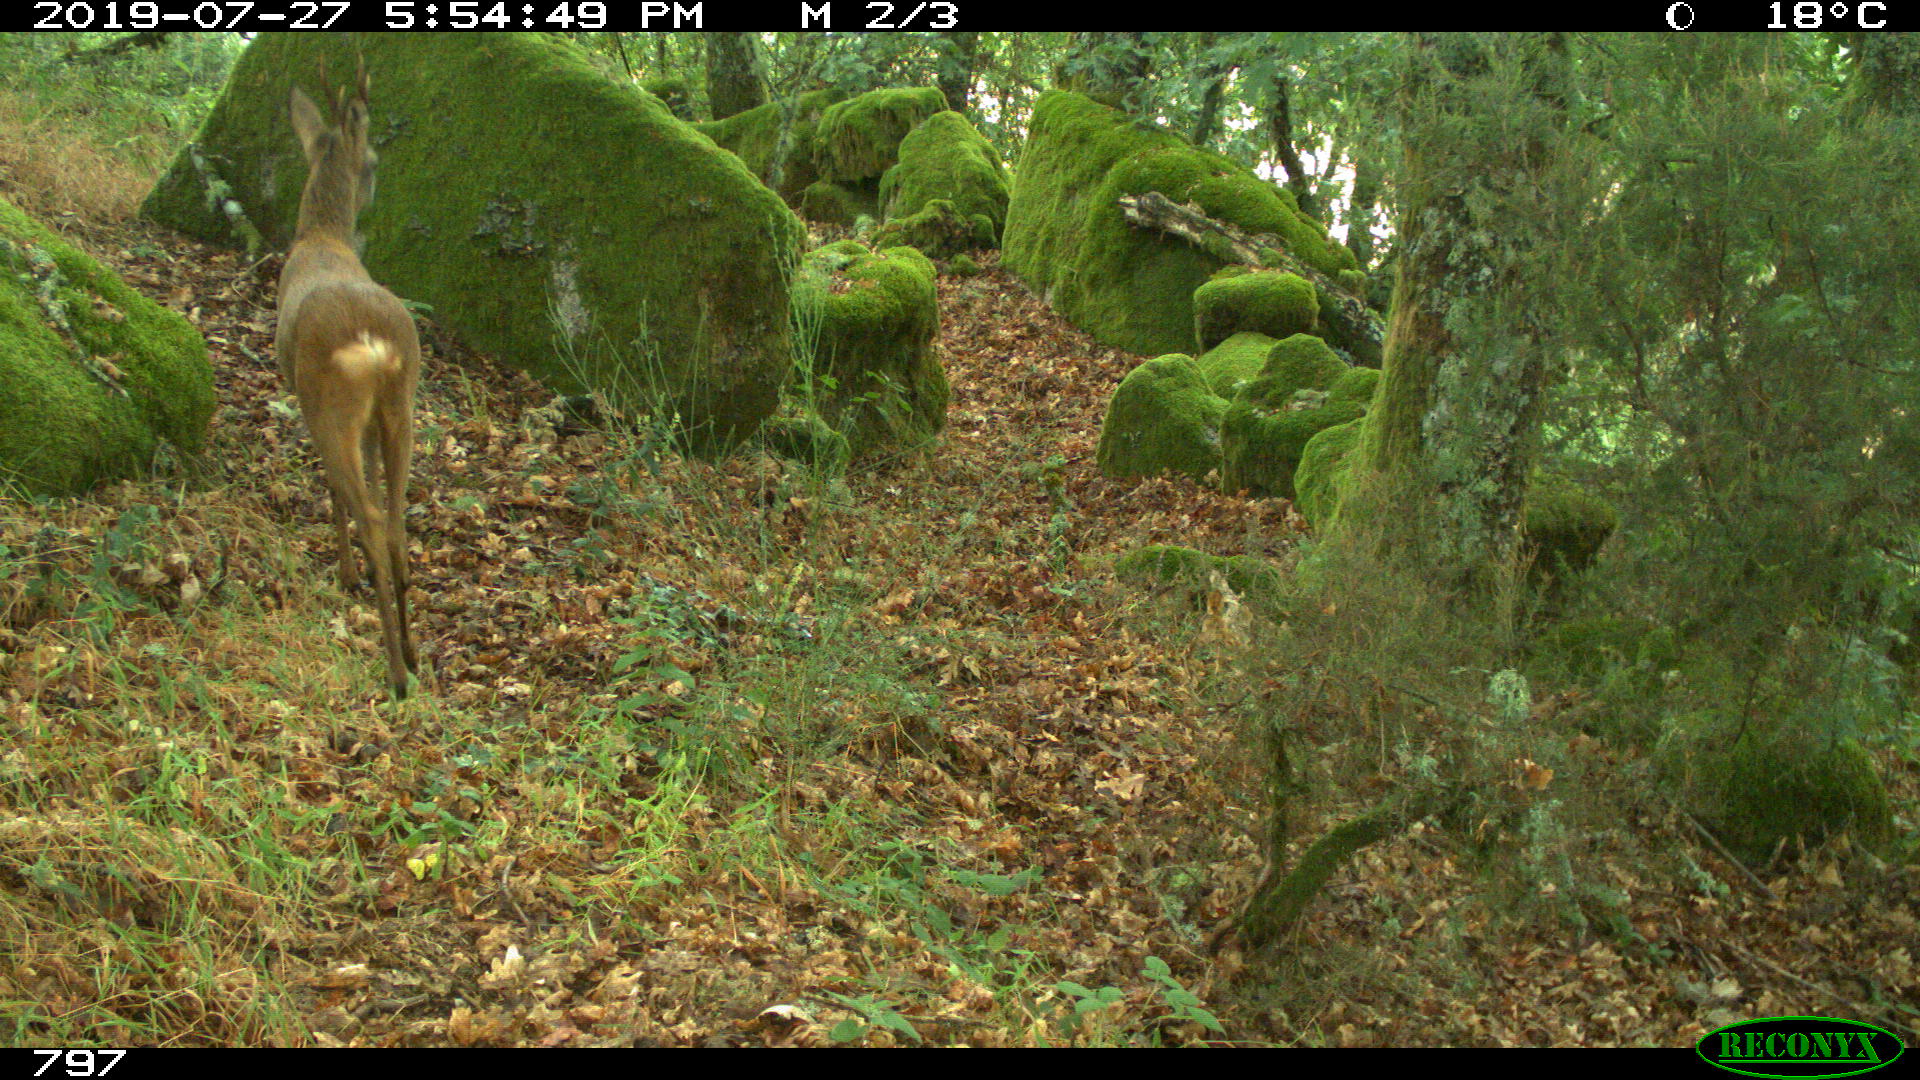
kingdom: Animalia
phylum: Chordata
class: Mammalia
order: Artiodactyla
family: Cervidae
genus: Capreolus
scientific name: Capreolus capreolus
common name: Western roe deer
